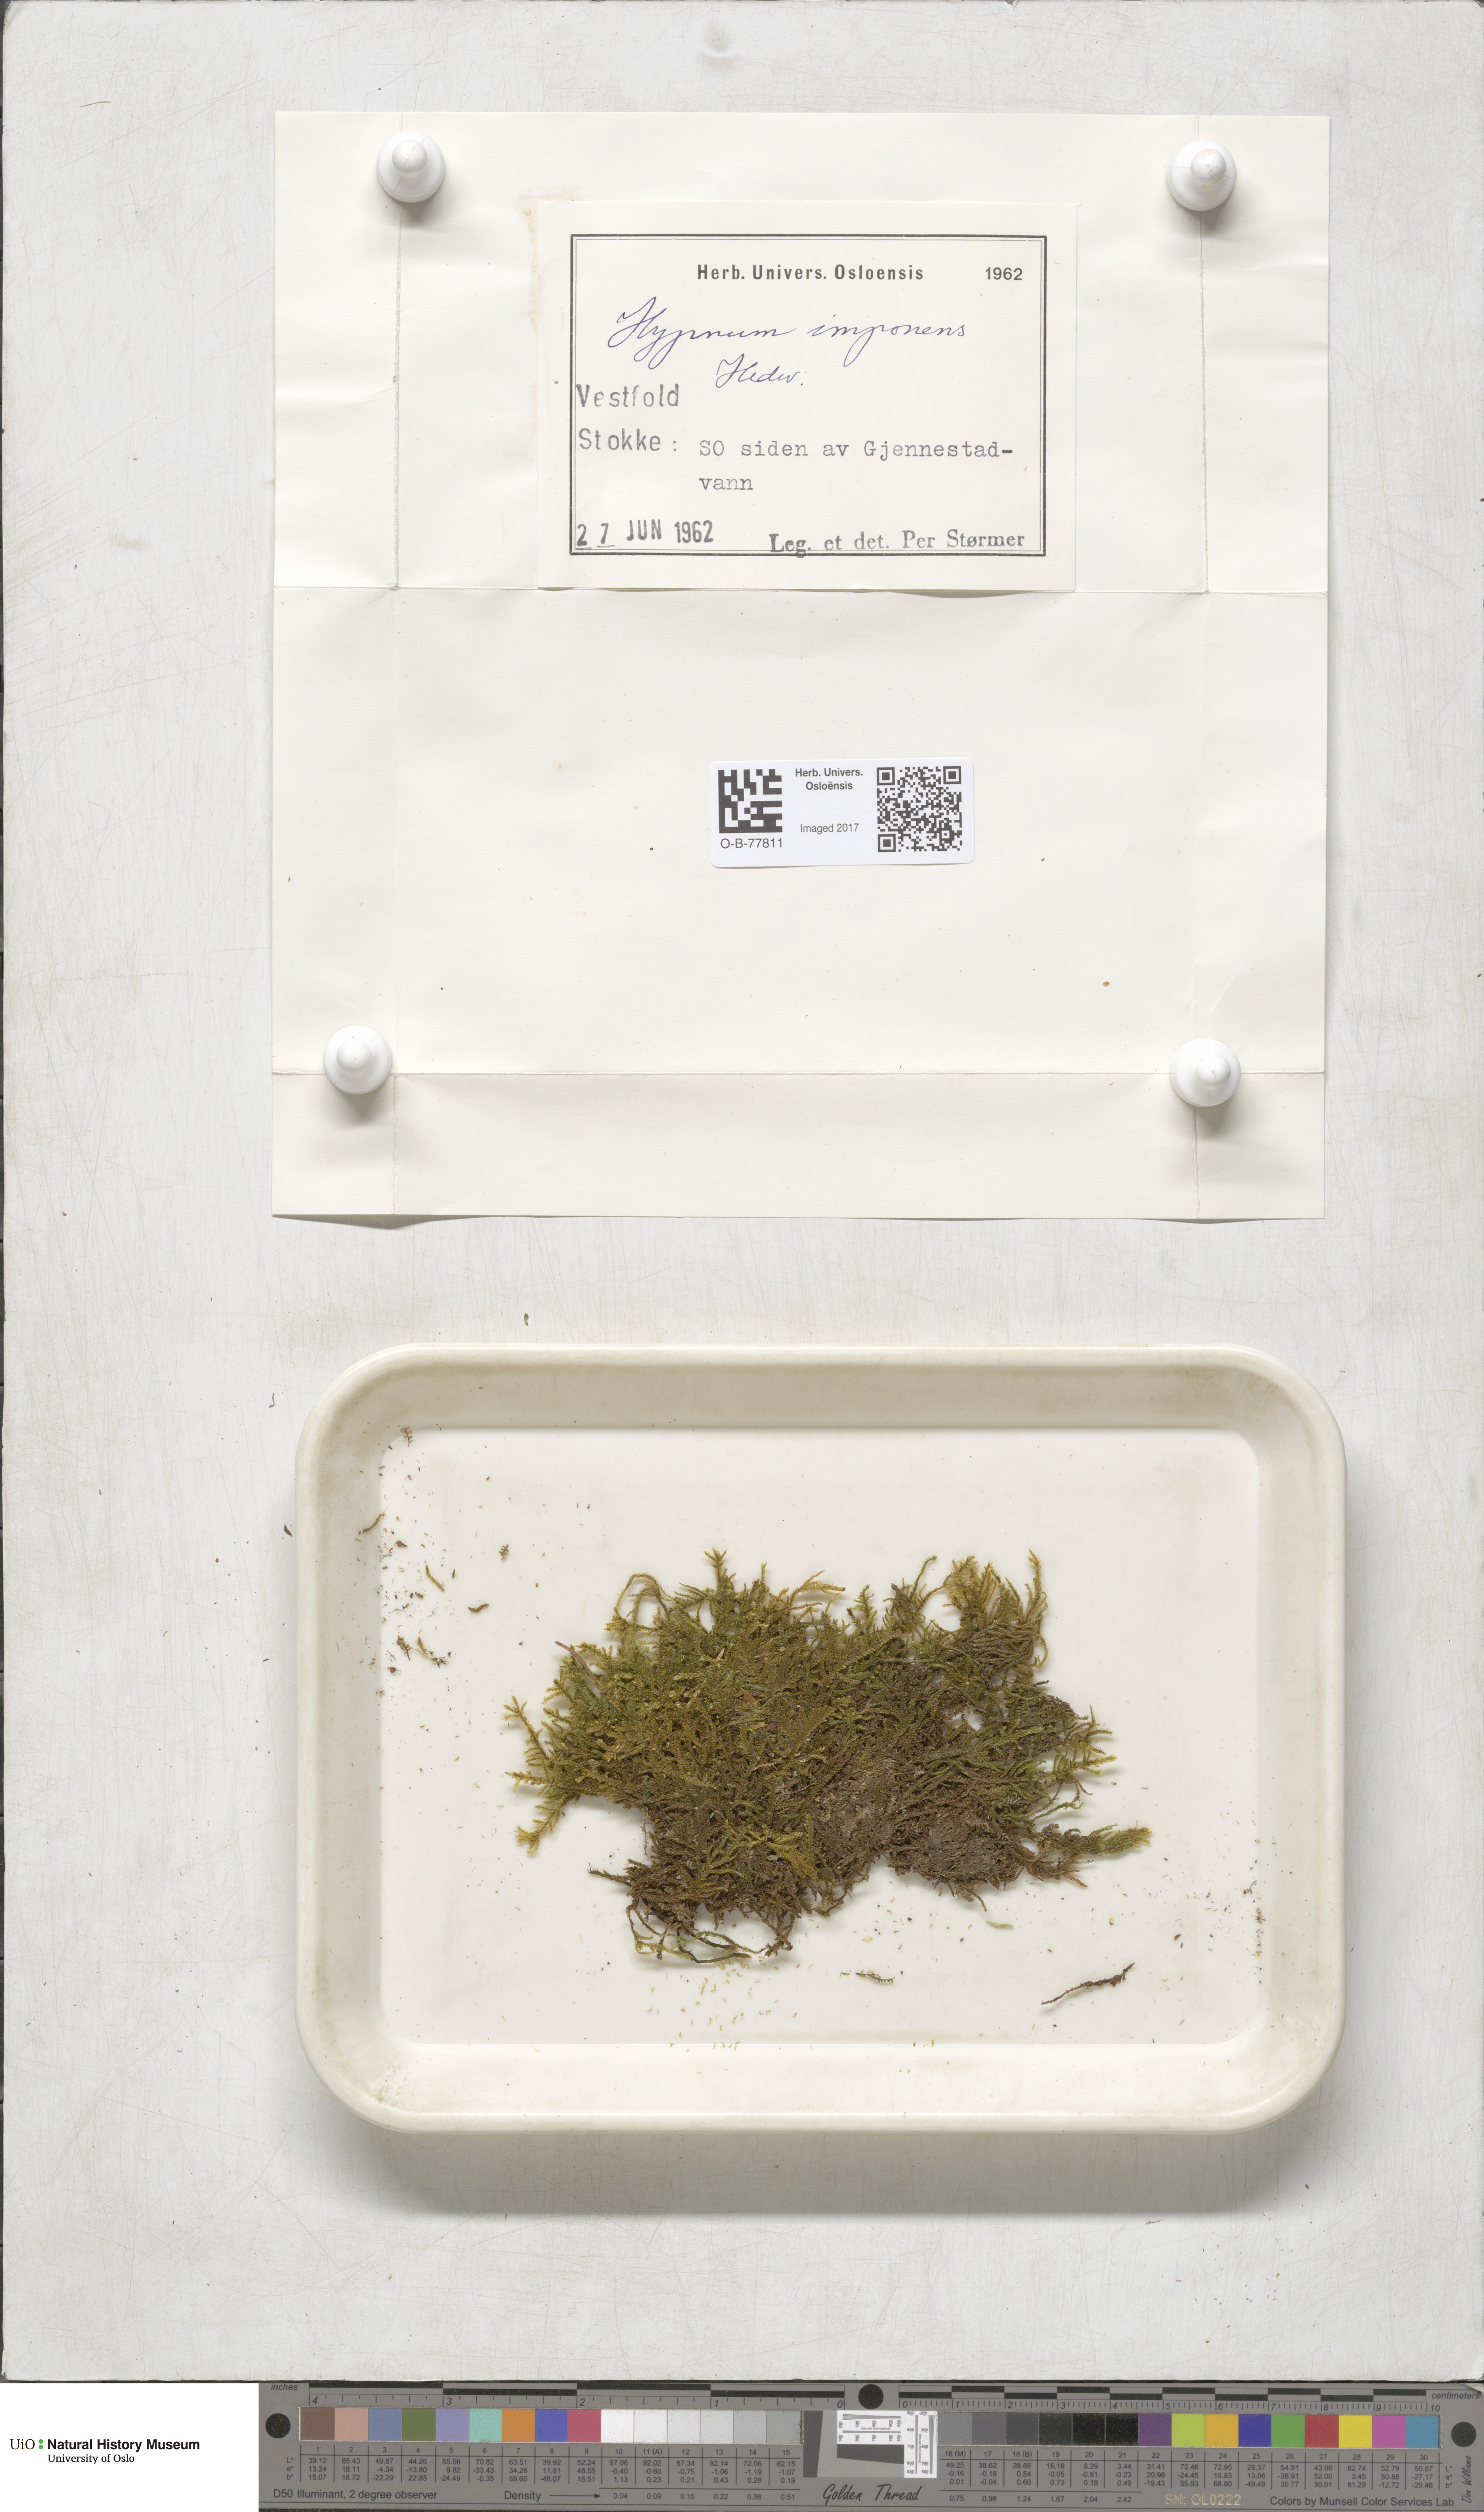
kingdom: Plantae
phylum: Bryophyta
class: Bryopsida
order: Hypnales
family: Callicladiaceae
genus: Callicladium
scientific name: Callicladium imponens
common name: Brocade moss
